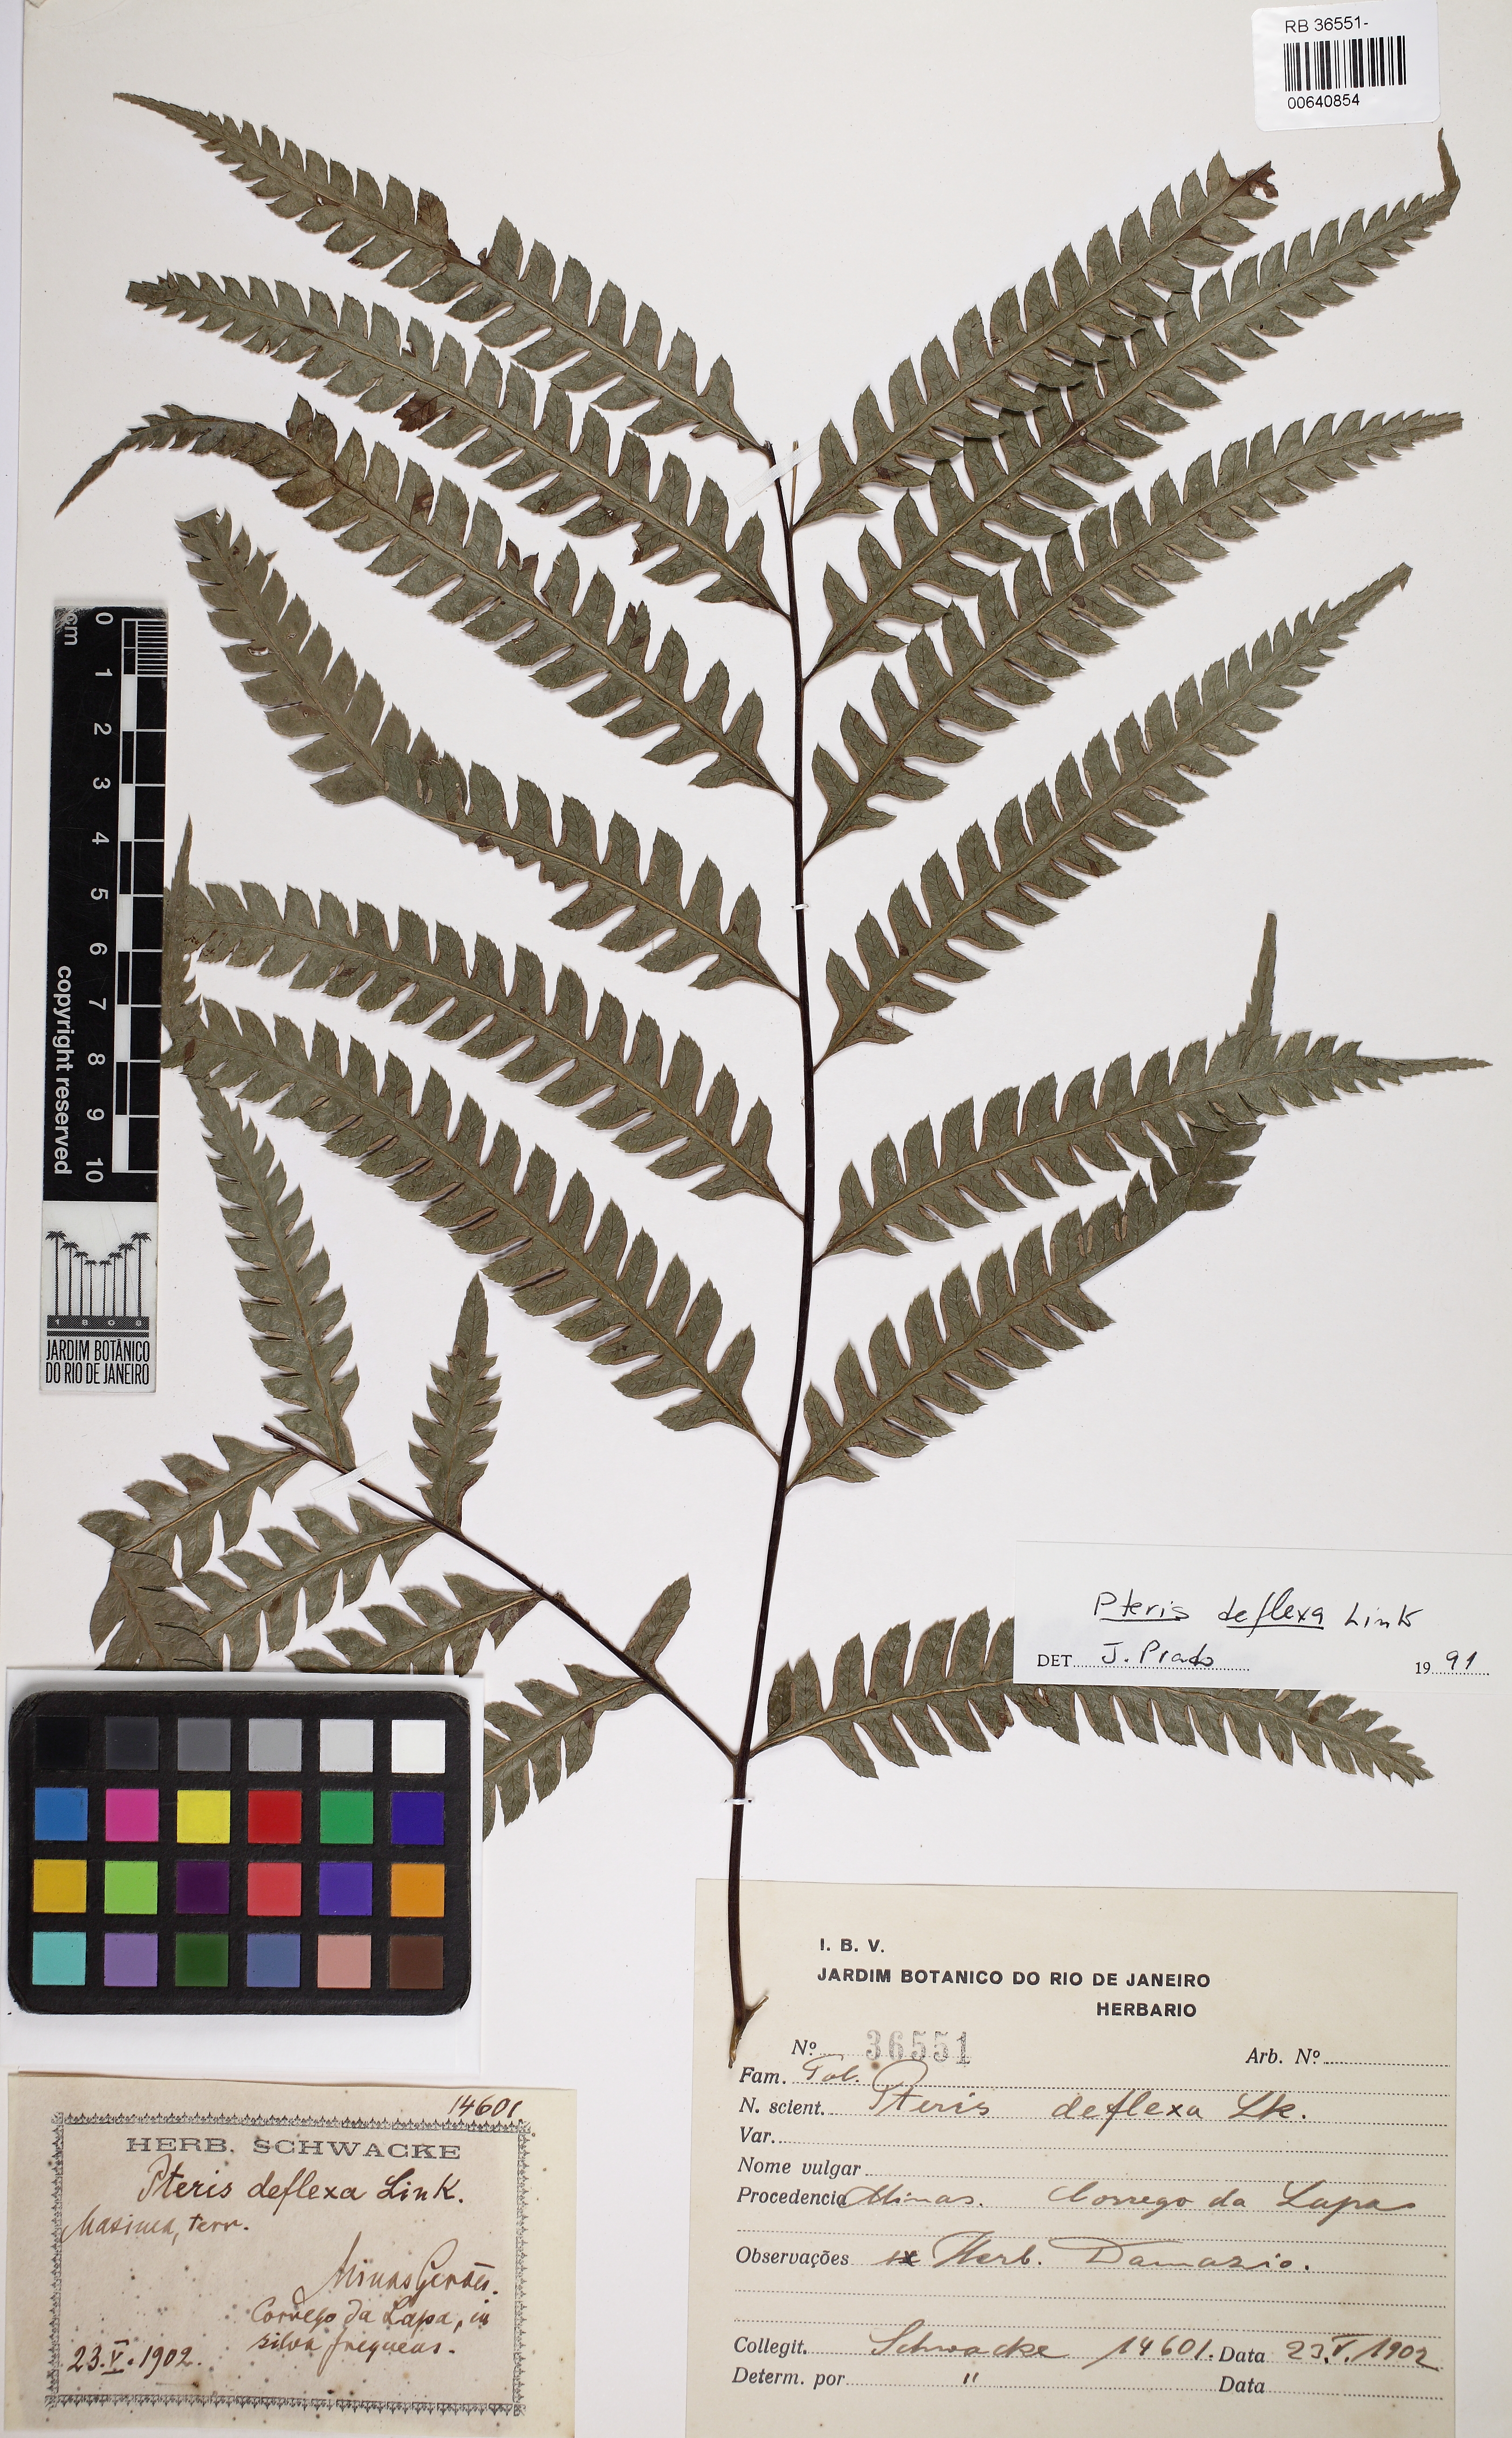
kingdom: Plantae
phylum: Tracheophyta
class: Polypodiopsida
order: Polypodiales
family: Pteridaceae
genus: Pteris
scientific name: Pteris deflexa
